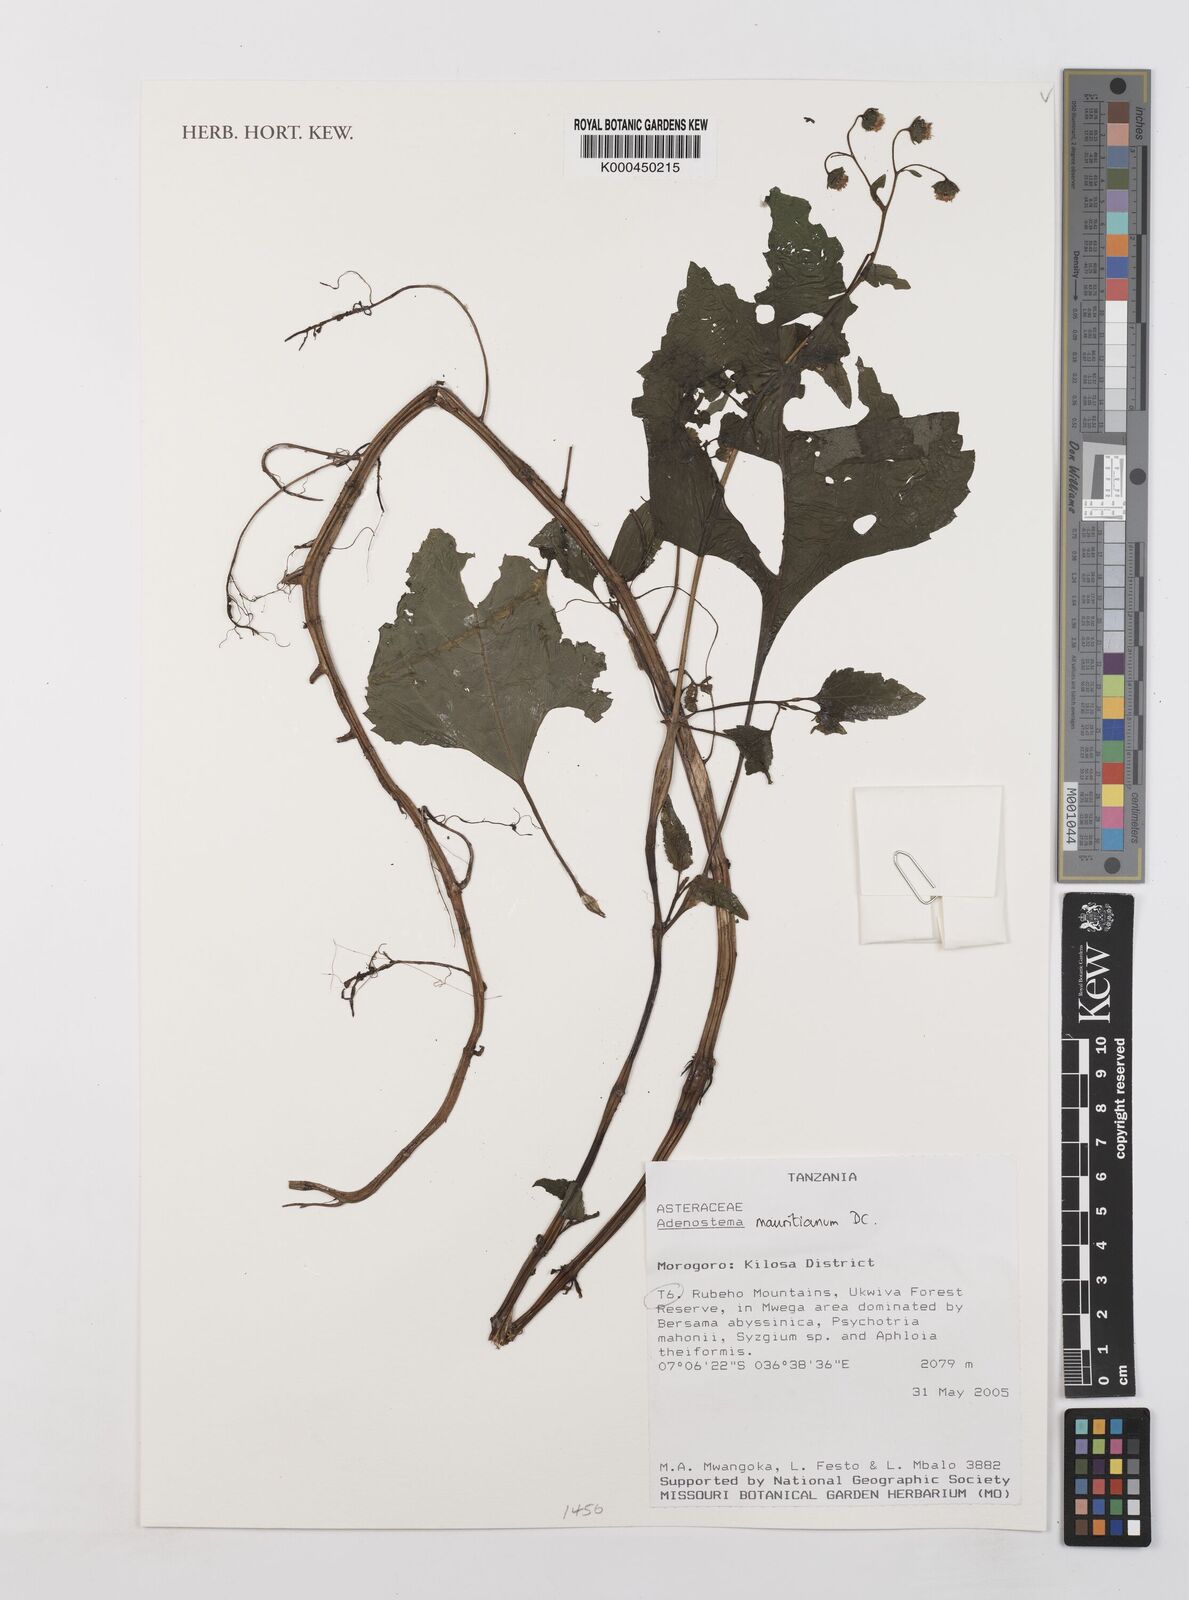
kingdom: Plantae
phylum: Tracheophyta
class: Magnoliopsida
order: Asterales
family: Asteraceae
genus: Adenostemma
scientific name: Adenostemma mauritianum
